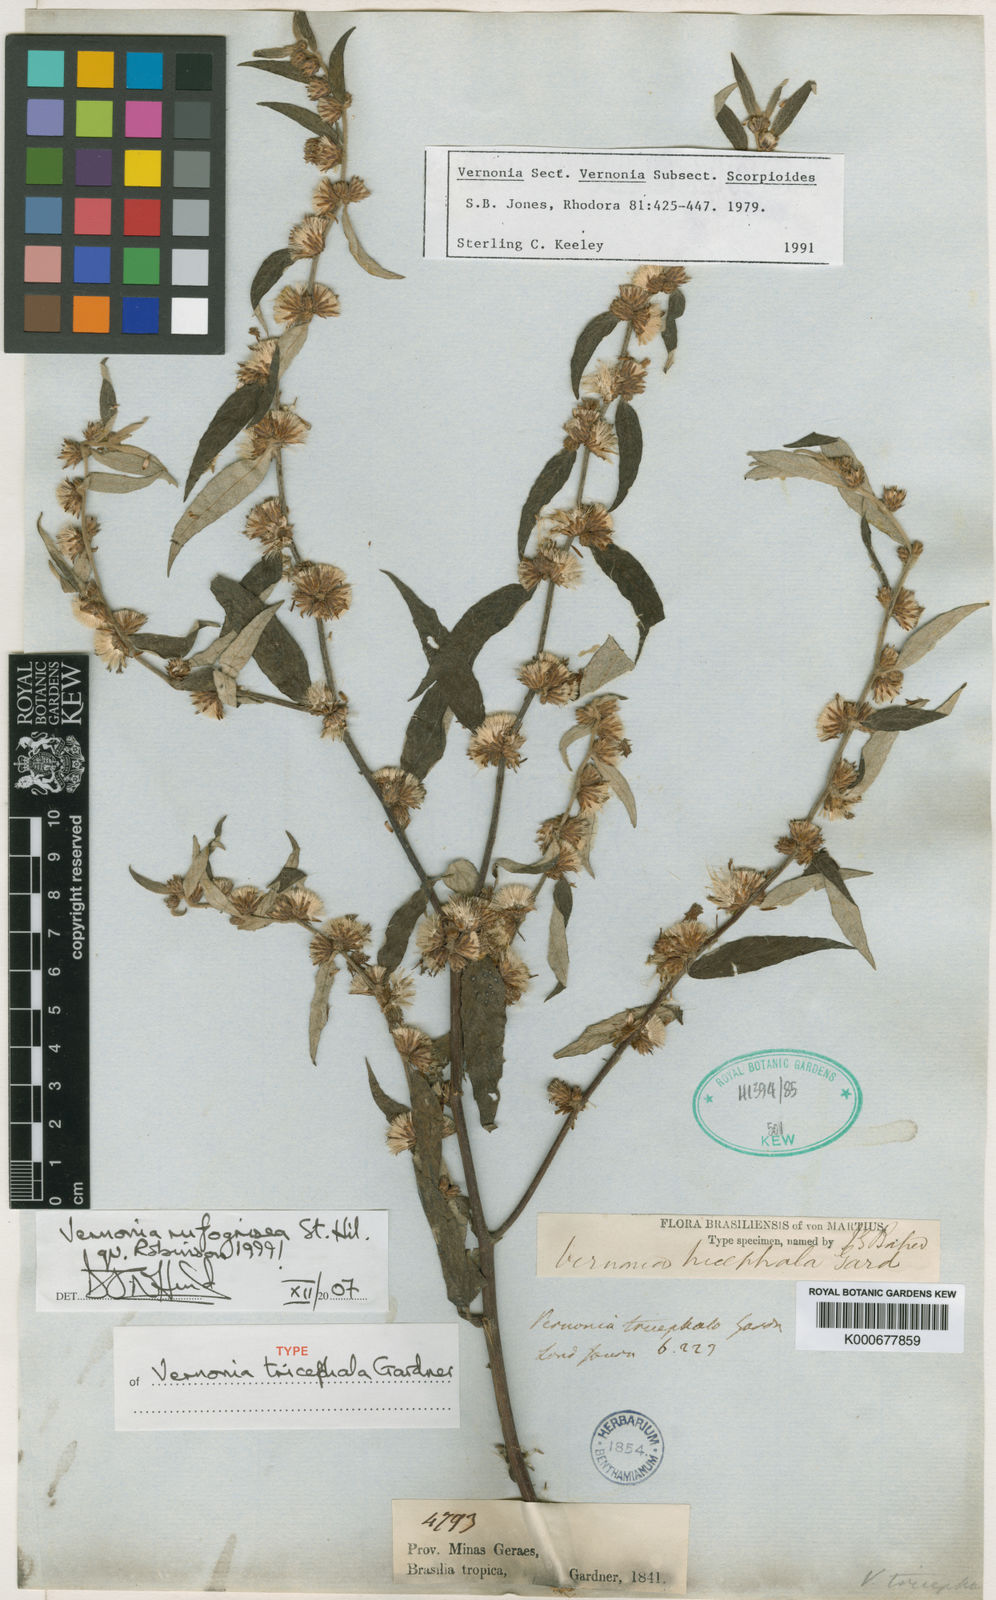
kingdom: Plantae
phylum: Tracheophyta
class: Magnoliopsida
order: Asterales
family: Asteraceae
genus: Lepidaploa
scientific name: Lepidaploa rufogrisea
